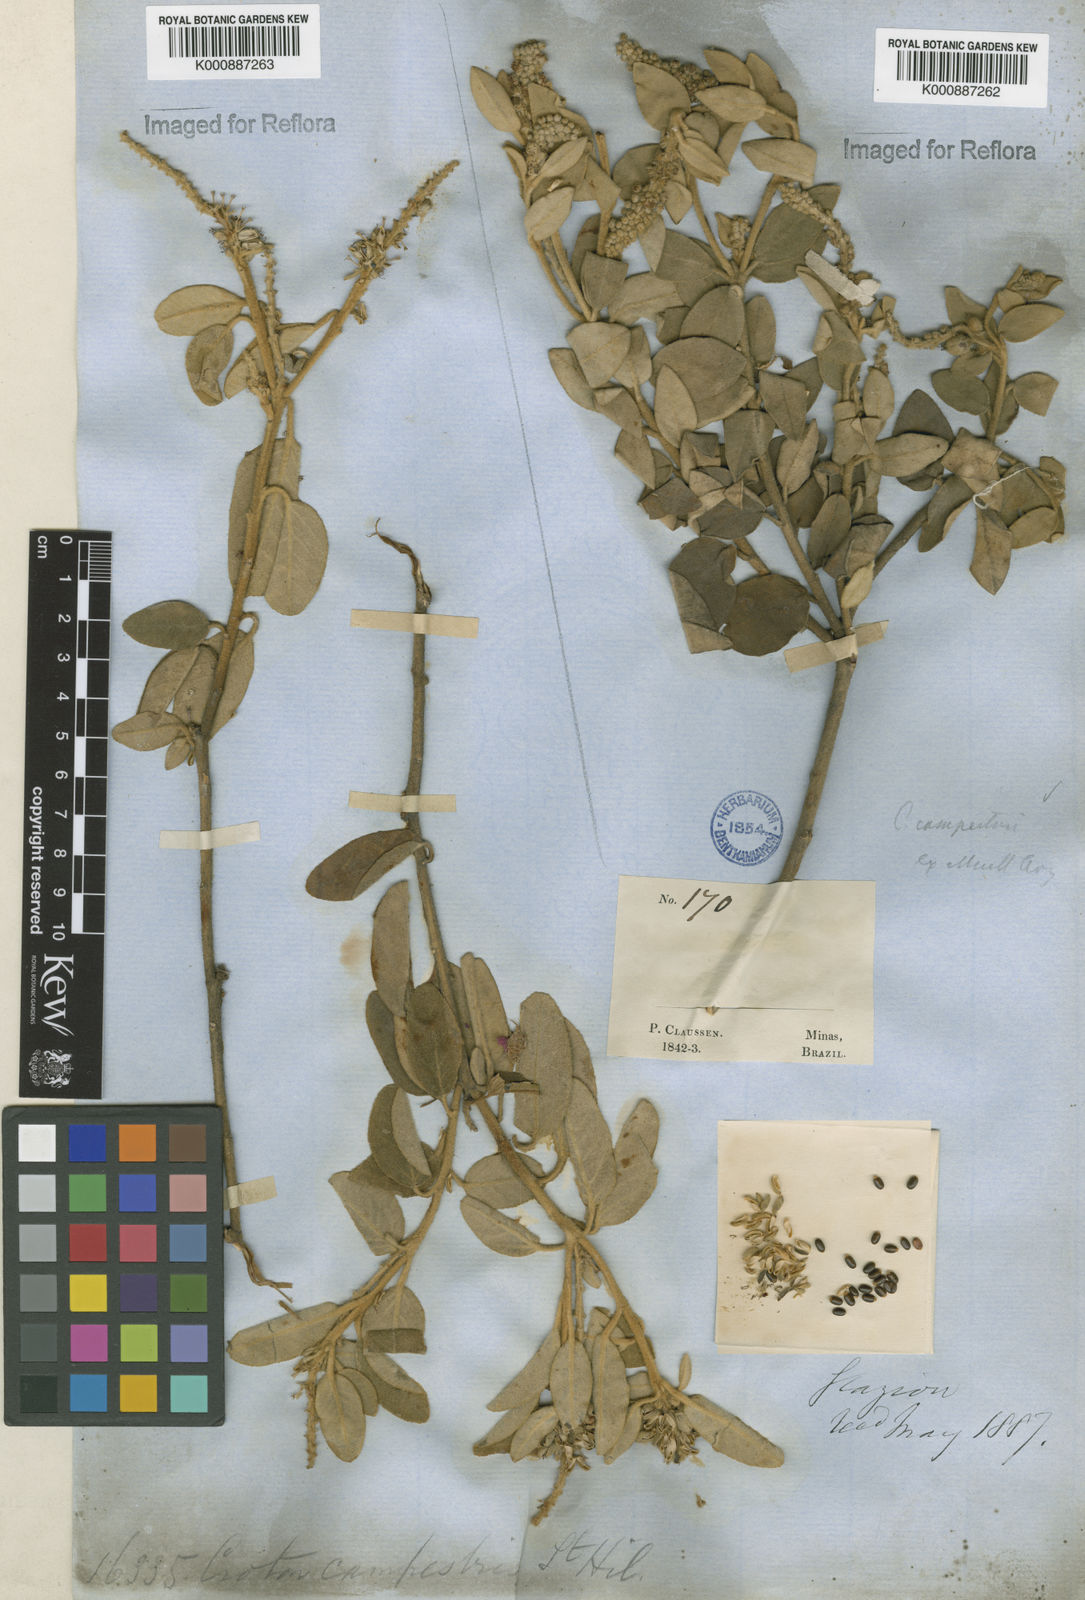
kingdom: Plantae
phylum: Tracheophyta
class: Magnoliopsida
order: Malpighiales
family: Euphorbiaceae
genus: Croton
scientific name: Croton campestris
